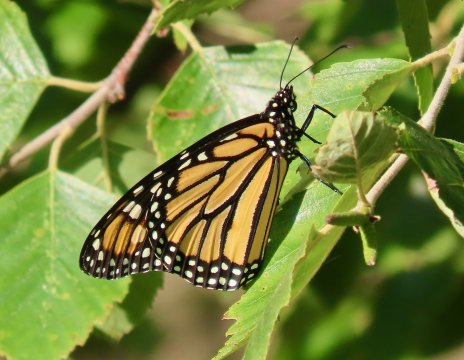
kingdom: Animalia
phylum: Arthropoda
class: Insecta
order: Lepidoptera
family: Nymphalidae
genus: Danaus
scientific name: Danaus plexippus
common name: Monarch
